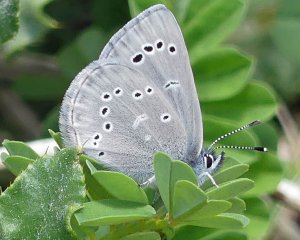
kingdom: Animalia
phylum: Arthropoda
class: Insecta
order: Lepidoptera
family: Lycaenidae
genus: Glaucopsyche
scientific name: Glaucopsyche lygdamus
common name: Silvery Blue
